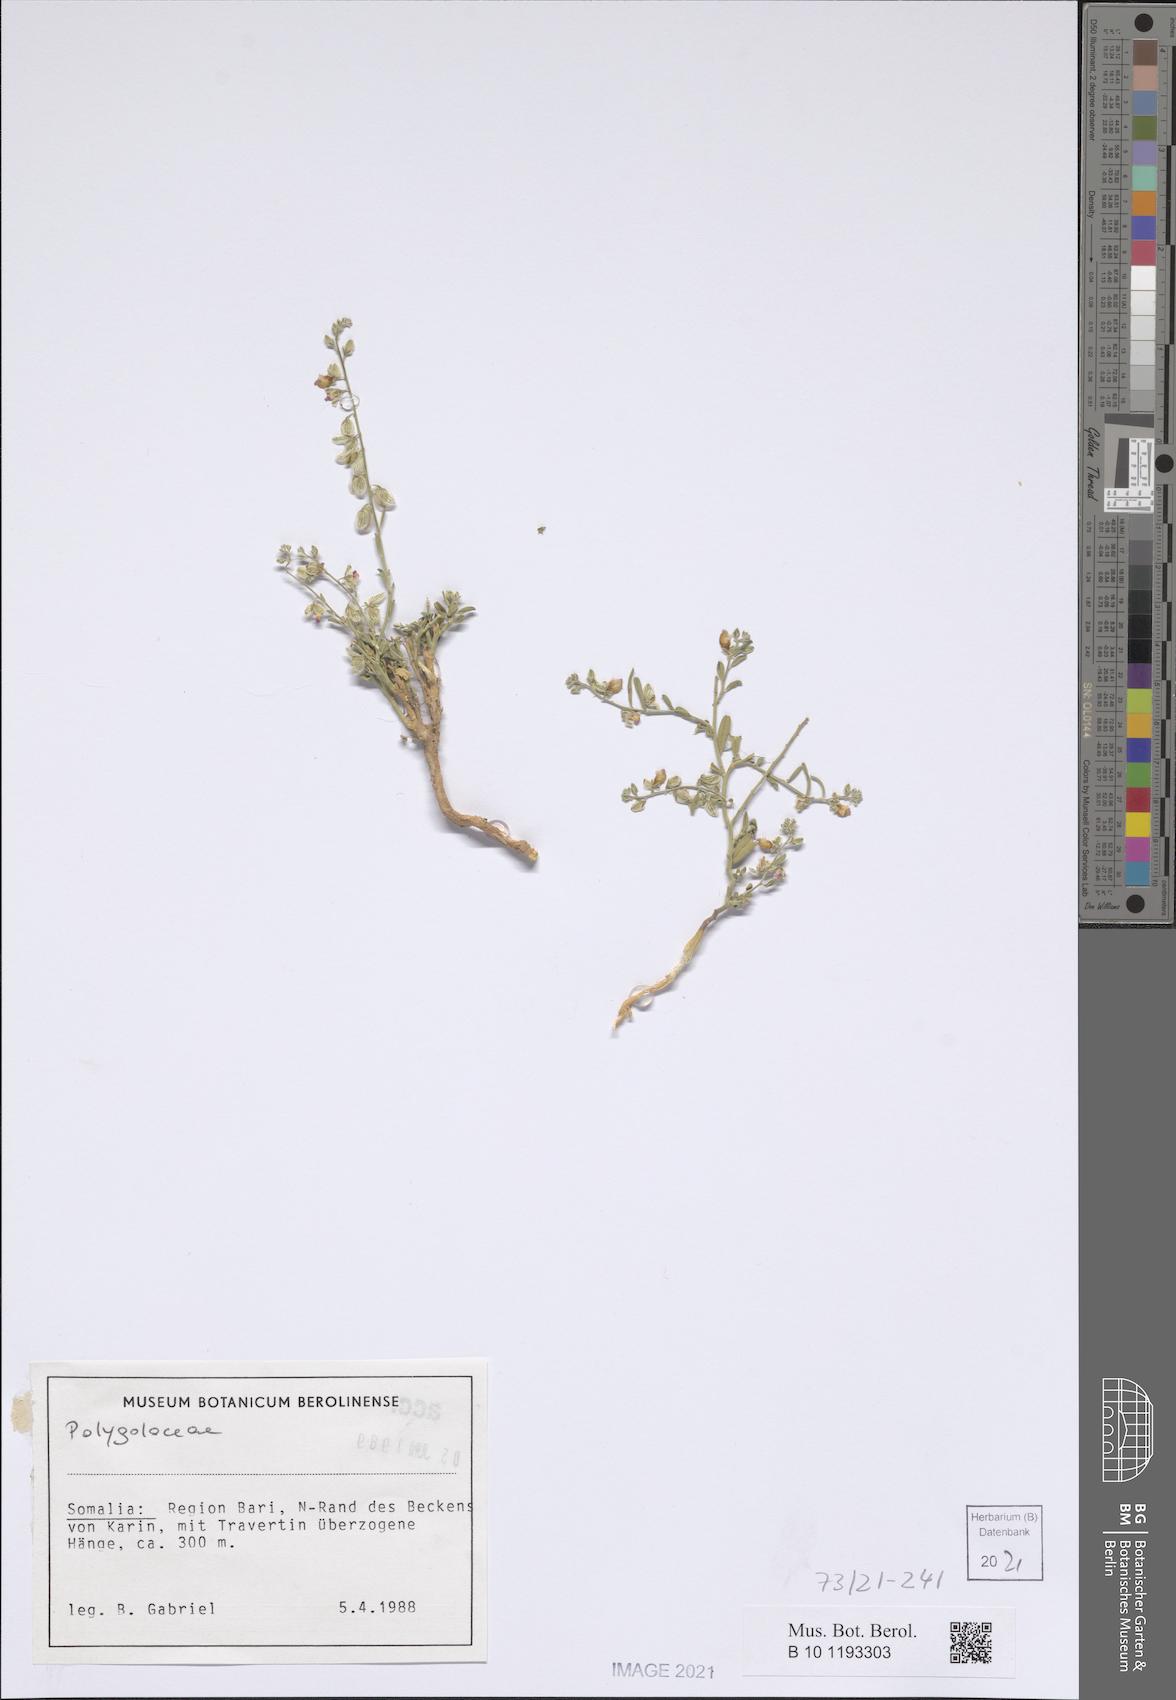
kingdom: Plantae
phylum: Tracheophyta
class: Magnoliopsida
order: Fabales
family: Polygalaceae
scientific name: Polygalaceae
